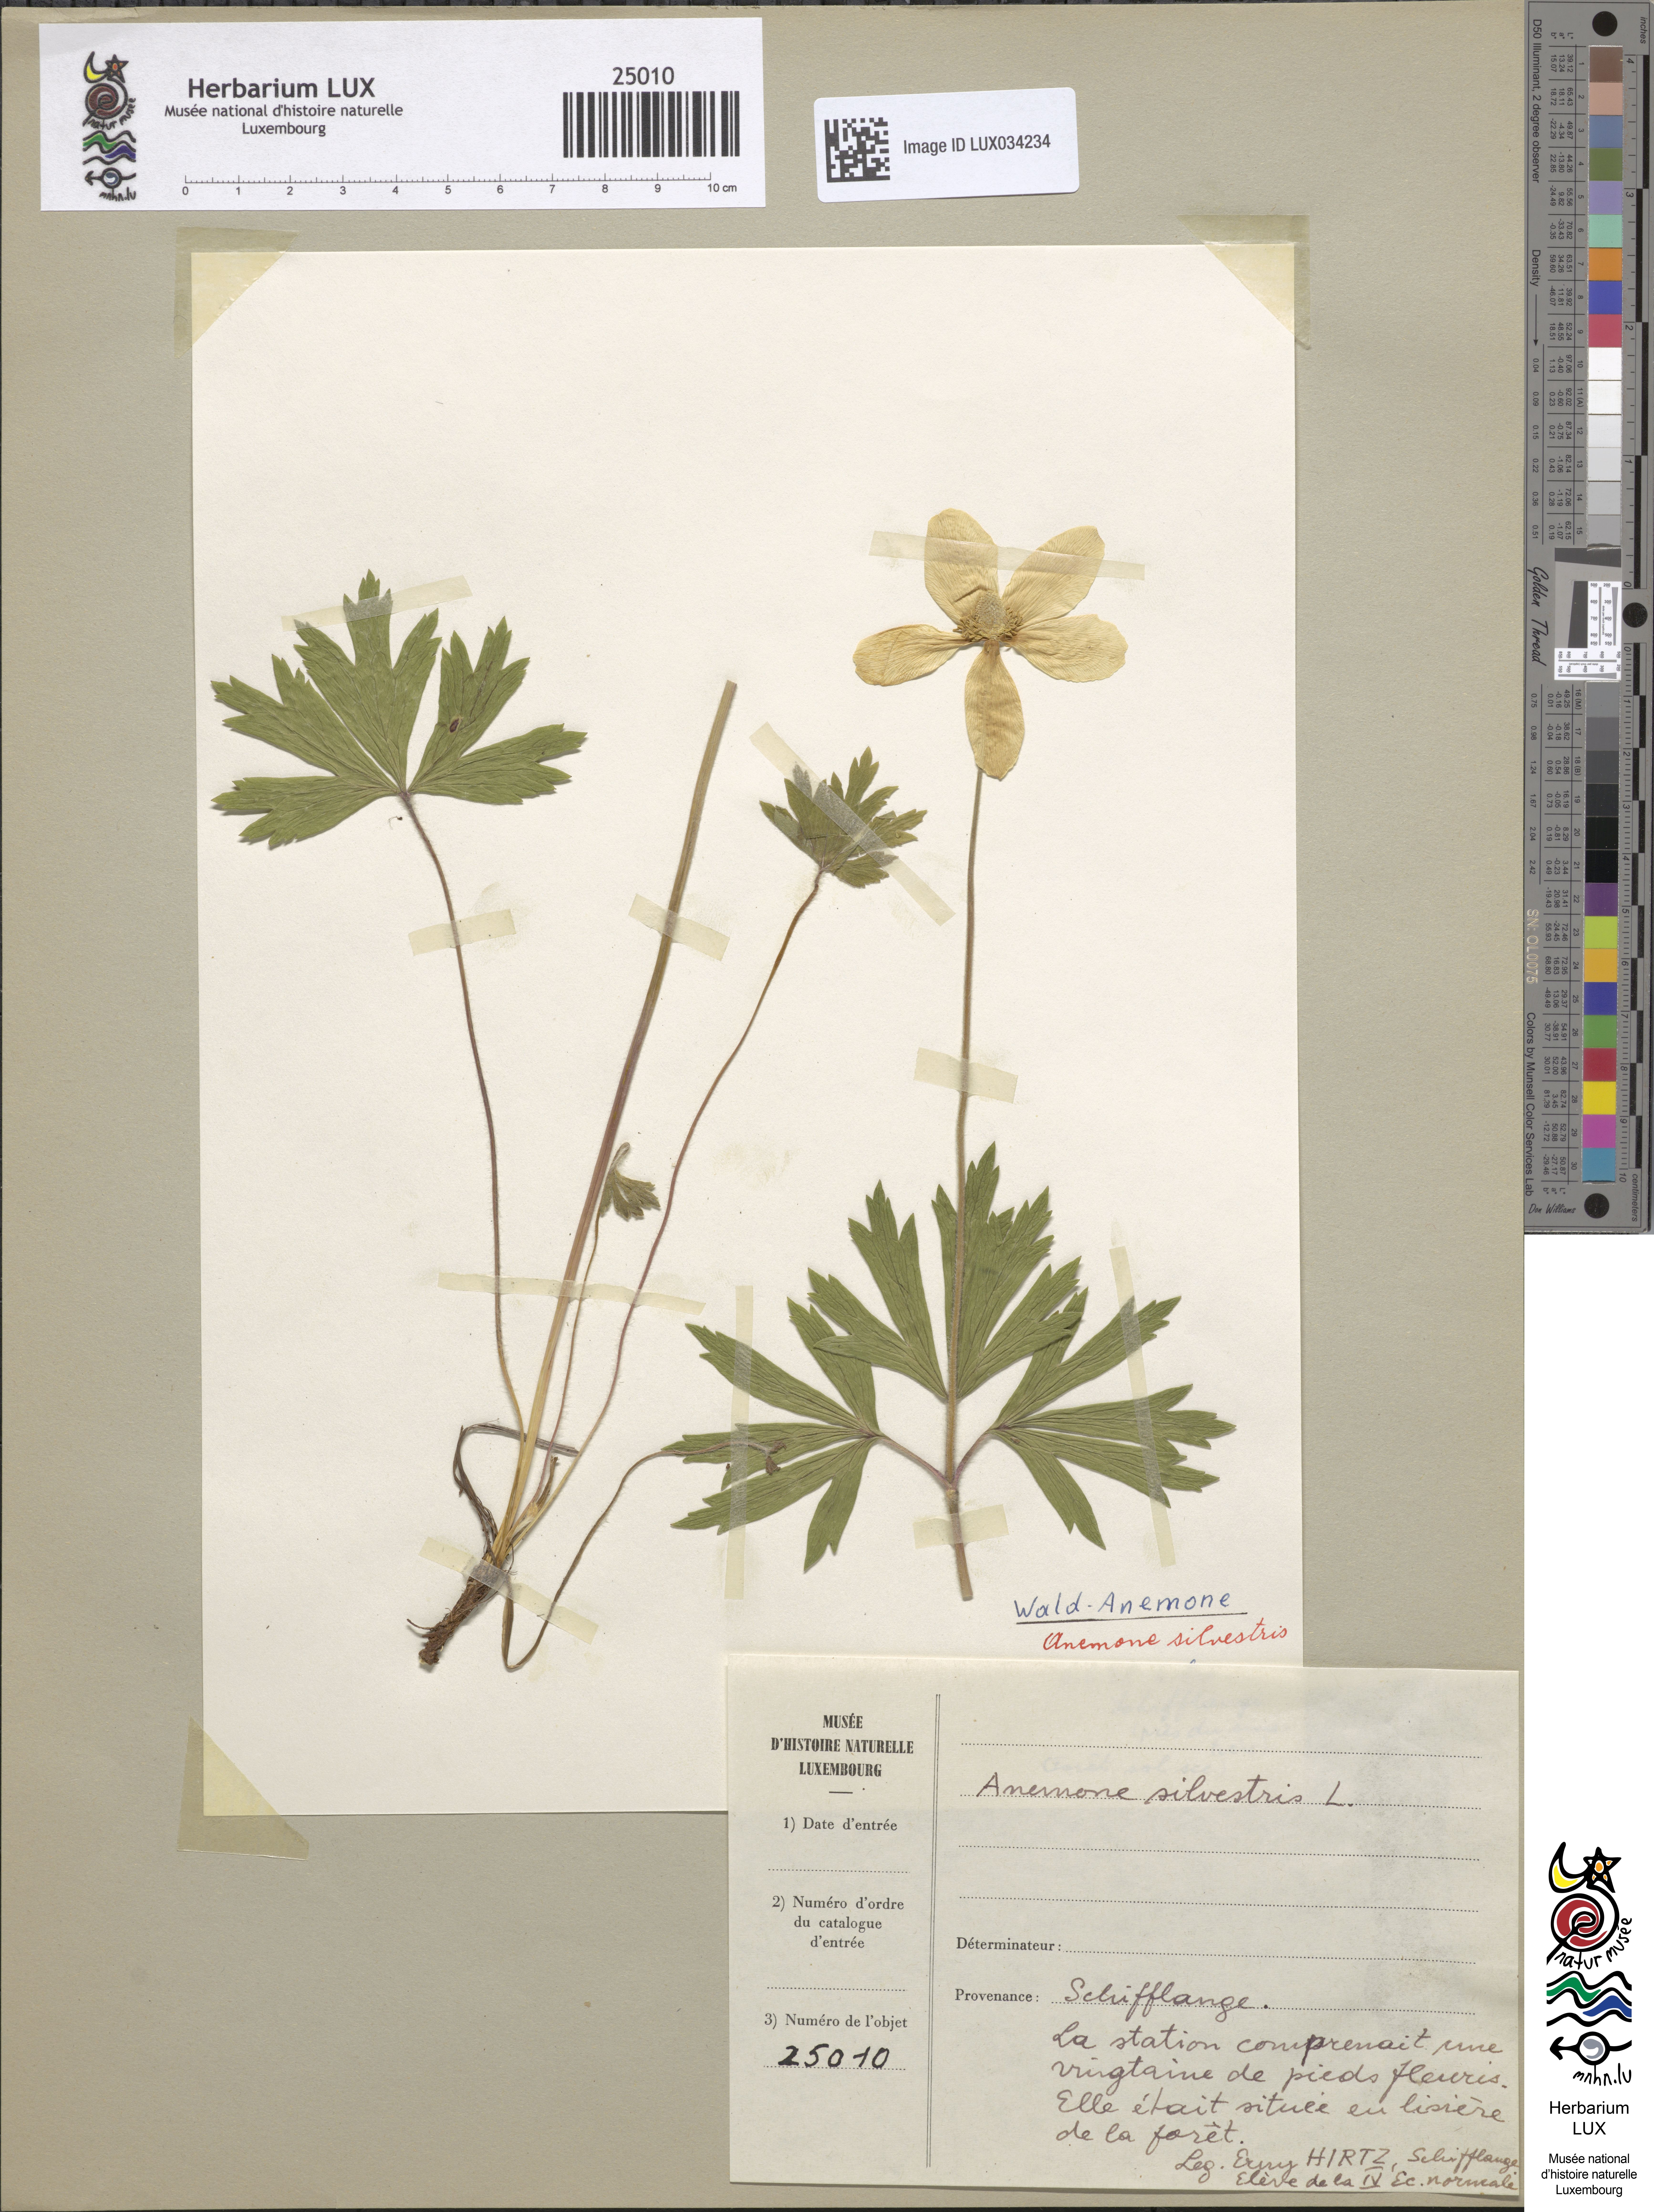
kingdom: Plantae
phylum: Tracheophyta
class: Magnoliopsida
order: Ranunculales
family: Ranunculaceae
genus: Anemone
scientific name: Anemone sylvestris
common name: Snowdrop anemone
